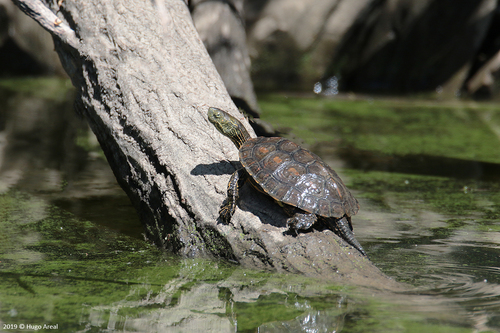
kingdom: Animalia
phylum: Chordata
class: Testudines
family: Geoemydidae
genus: Mauremys
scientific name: Mauremys leprosa
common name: Mediterranean pond turtle
